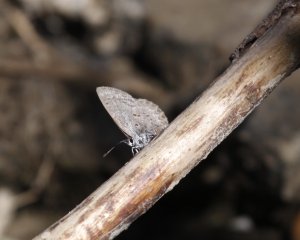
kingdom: Animalia
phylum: Arthropoda
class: Insecta
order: Lepidoptera
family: Lycaenidae
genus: Celastrina
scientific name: Celastrina lucia
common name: Northern Spring Azure
